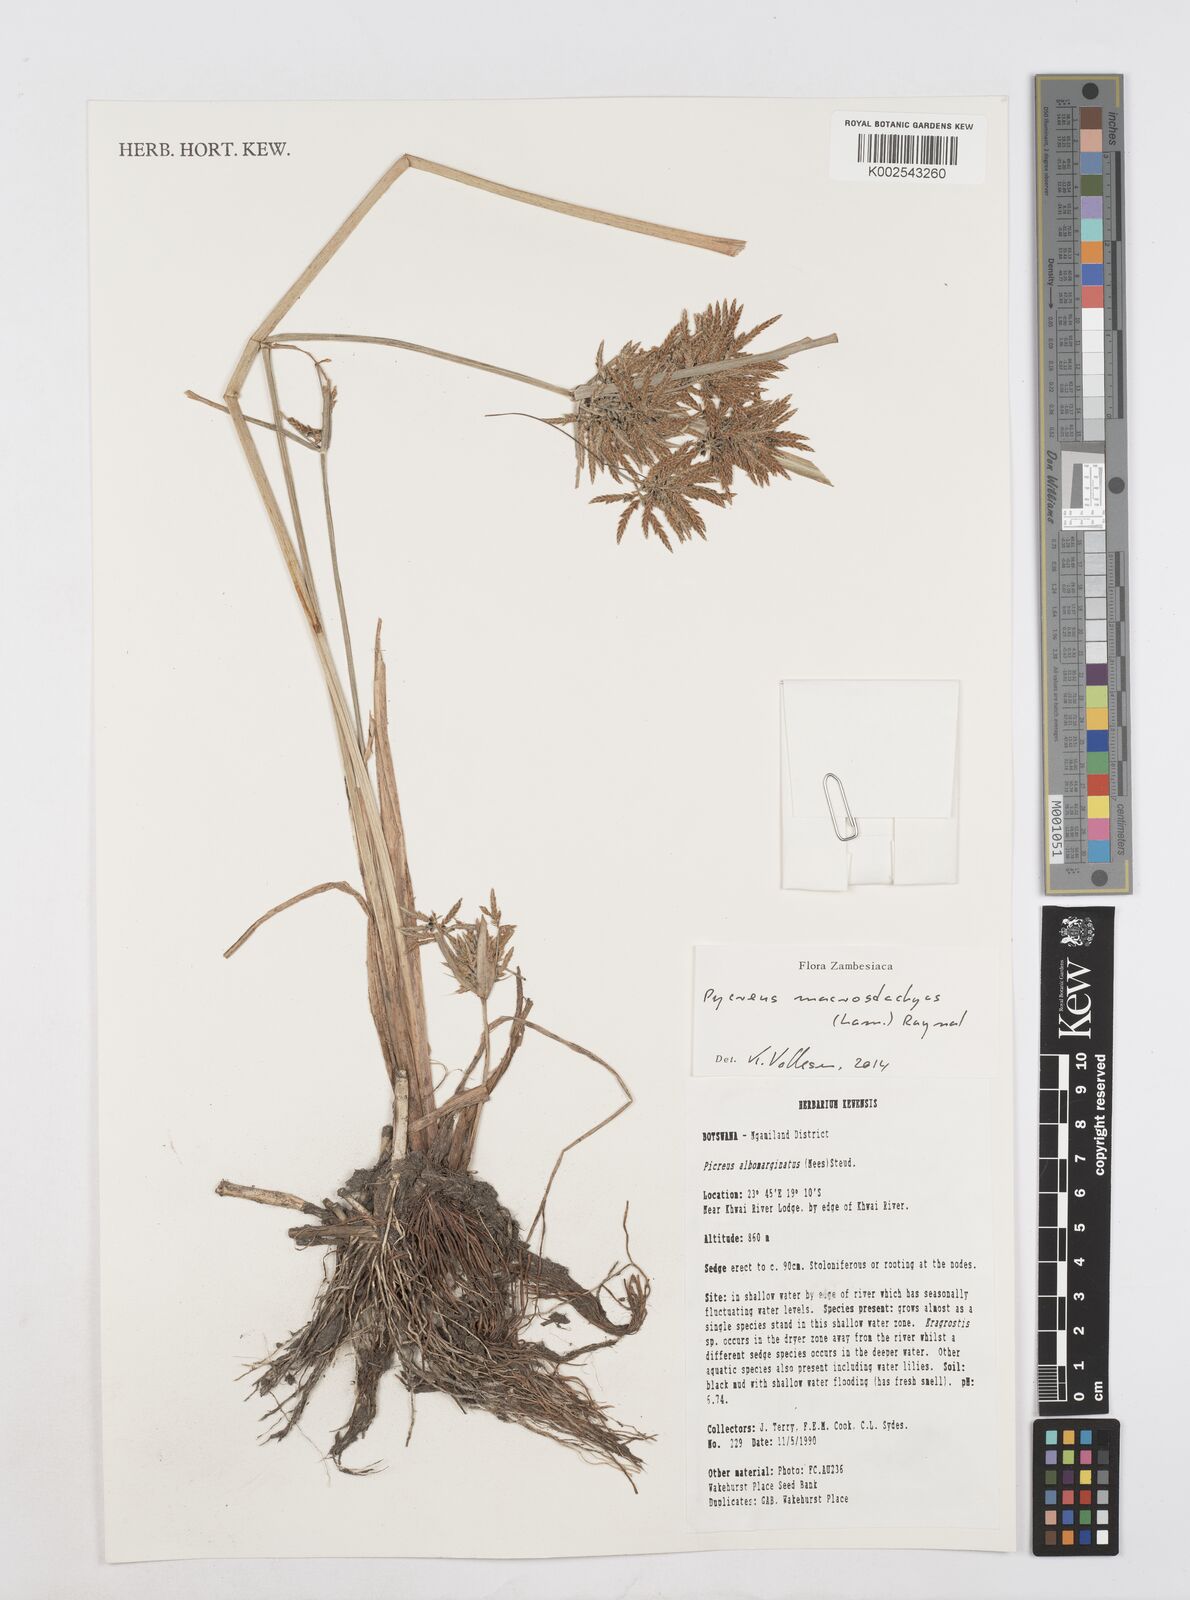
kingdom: Plantae
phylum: Tracheophyta
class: Liliopsida
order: Poales
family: Cyperaceae
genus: Cyperus
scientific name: Cyperus macrostachyos
